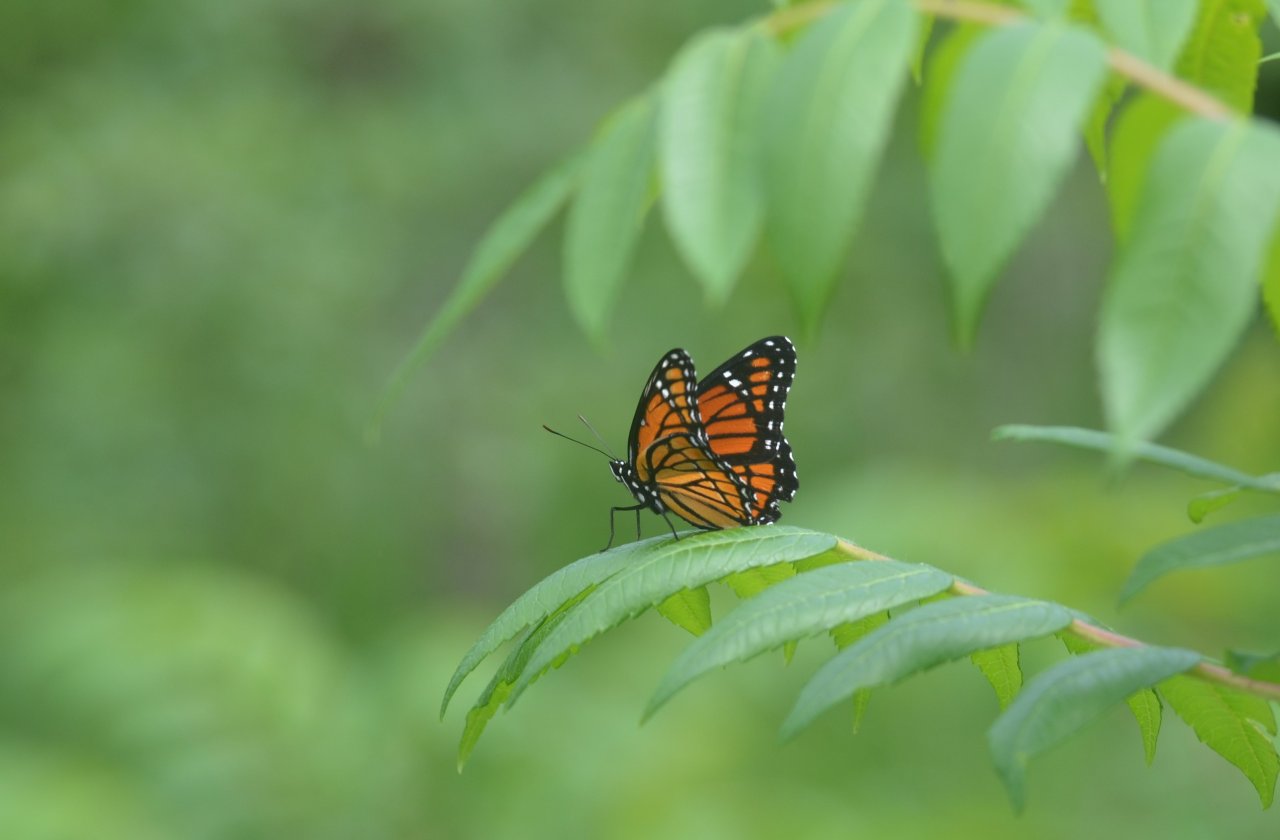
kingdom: Animalia
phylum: Arthropoda
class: Insecta
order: Lepidoptera
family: Nymphalidae
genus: Limenitis
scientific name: Limenitis archippus
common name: Viceroy
